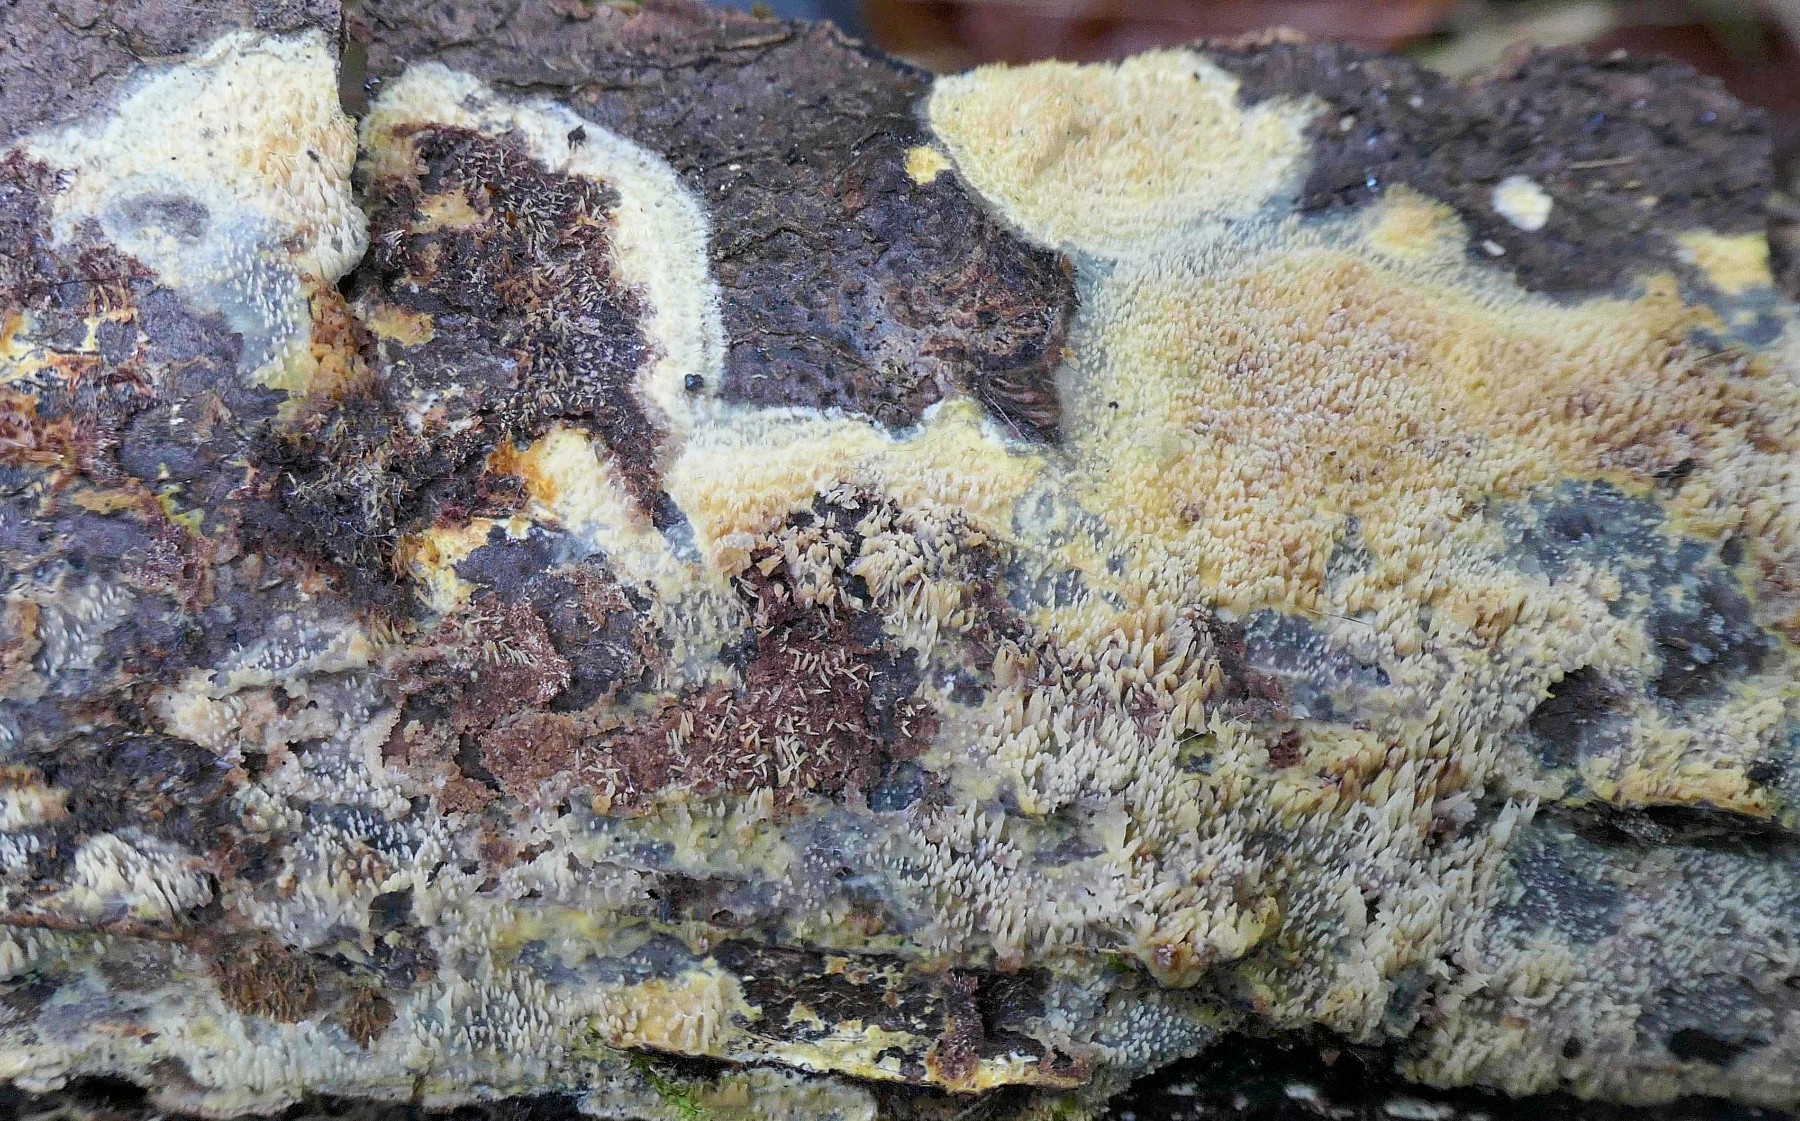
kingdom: Fungi
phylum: Basidiomycota
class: Agaricomycetes
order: Polyporales
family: Meruliaceae
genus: Mycoacia
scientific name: Mycoacia uda
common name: citrongul vokspig
